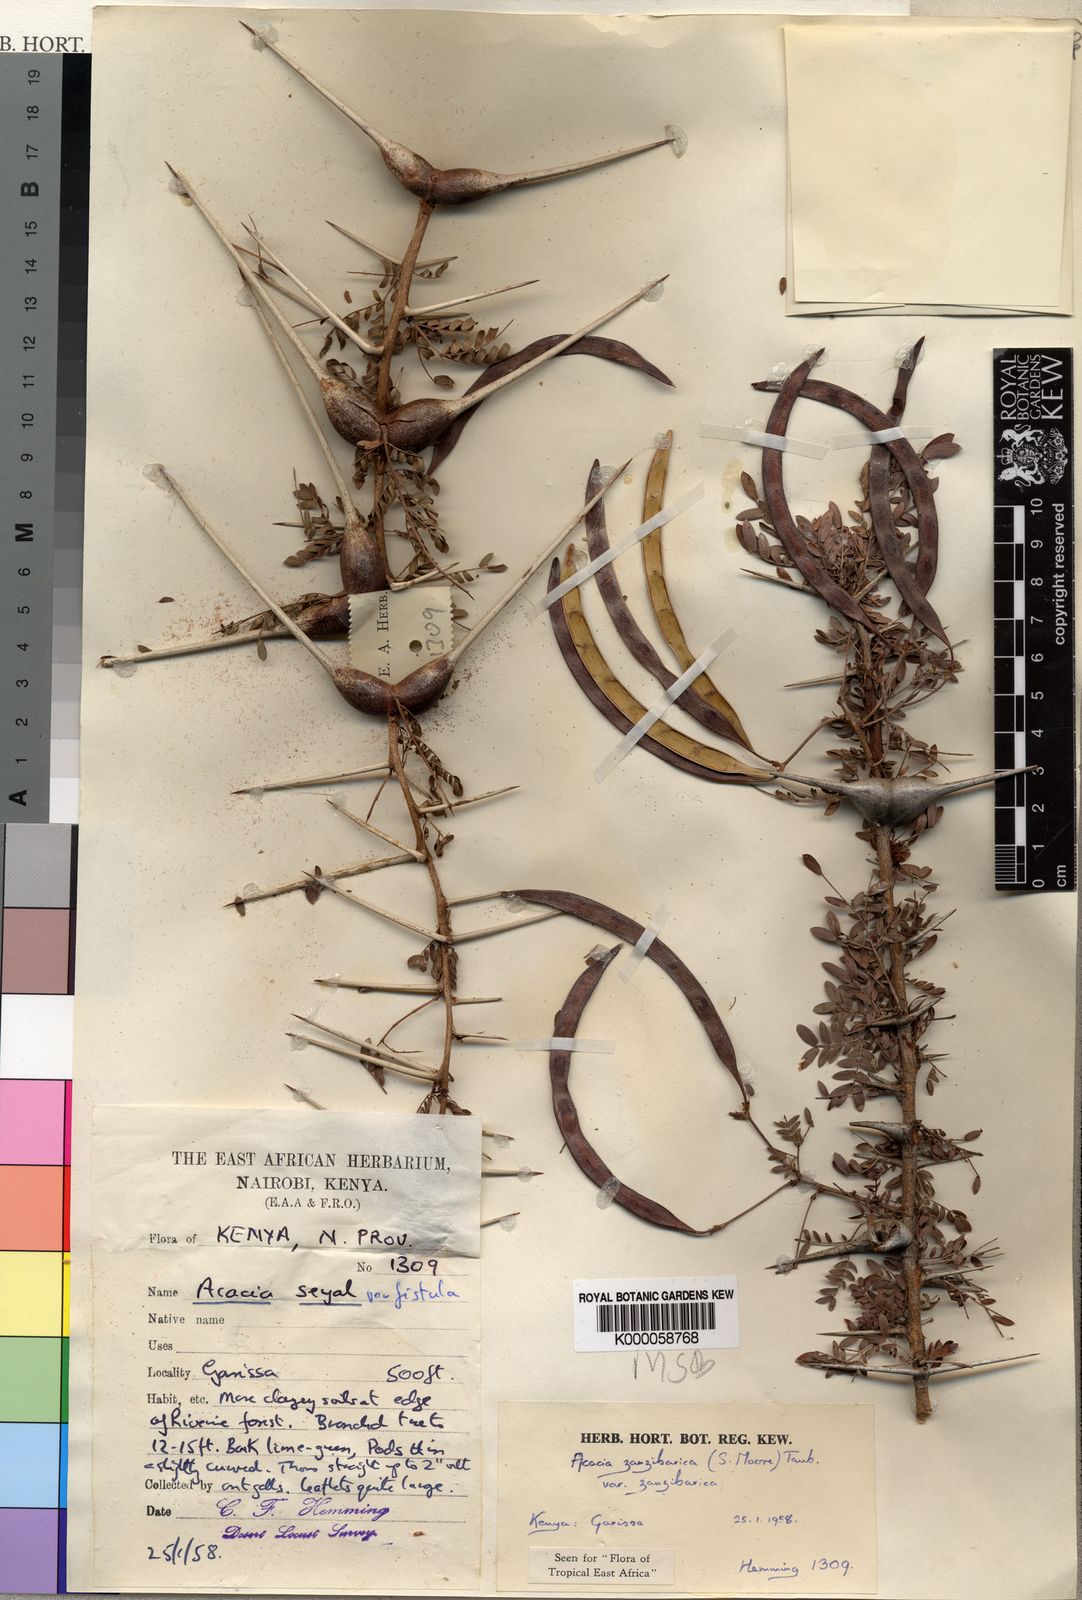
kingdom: Plantae
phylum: Tracheophyta
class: Magnoliopsida
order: Fabales
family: Fabaceae
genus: Vachellia
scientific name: Vachellia zanzibarica
